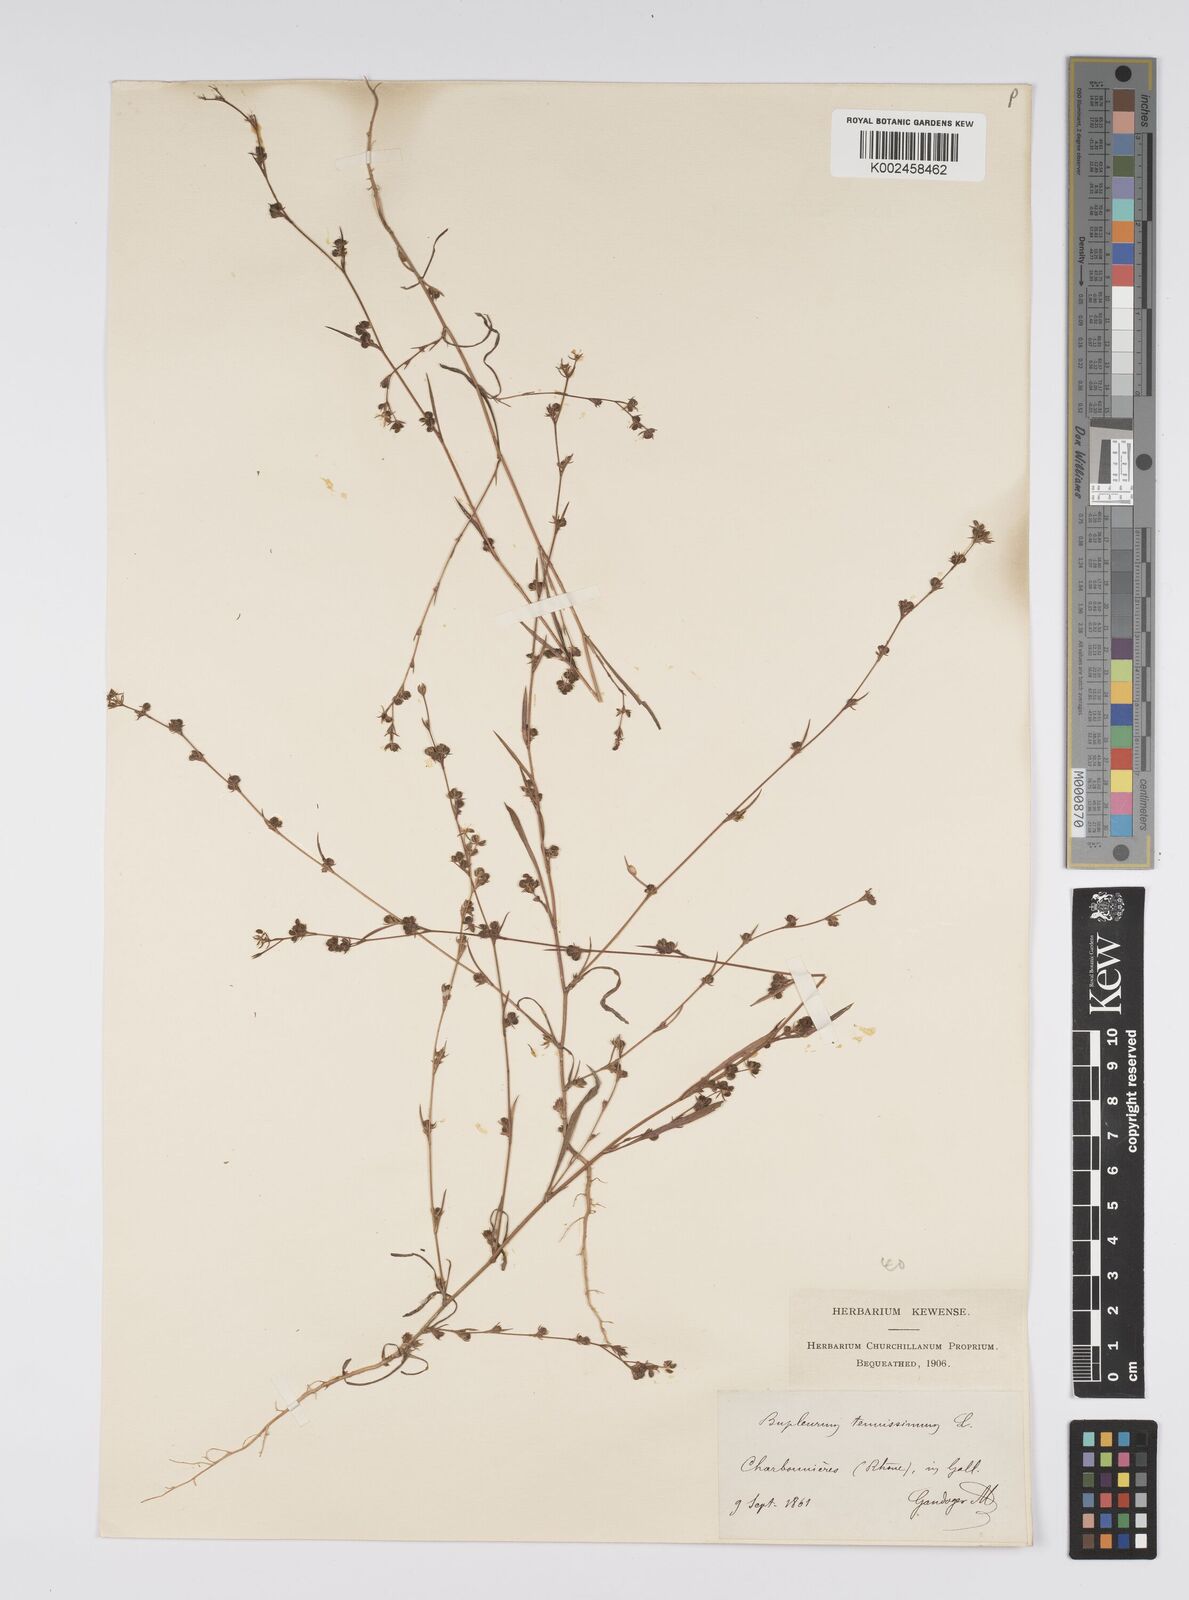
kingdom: Plantae
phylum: Tracheophyta
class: Magnoliopsida
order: Apiales
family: Apiaceae
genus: Bupleurum
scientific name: Bupleurum tenuissimum
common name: Slender hare's-ear
